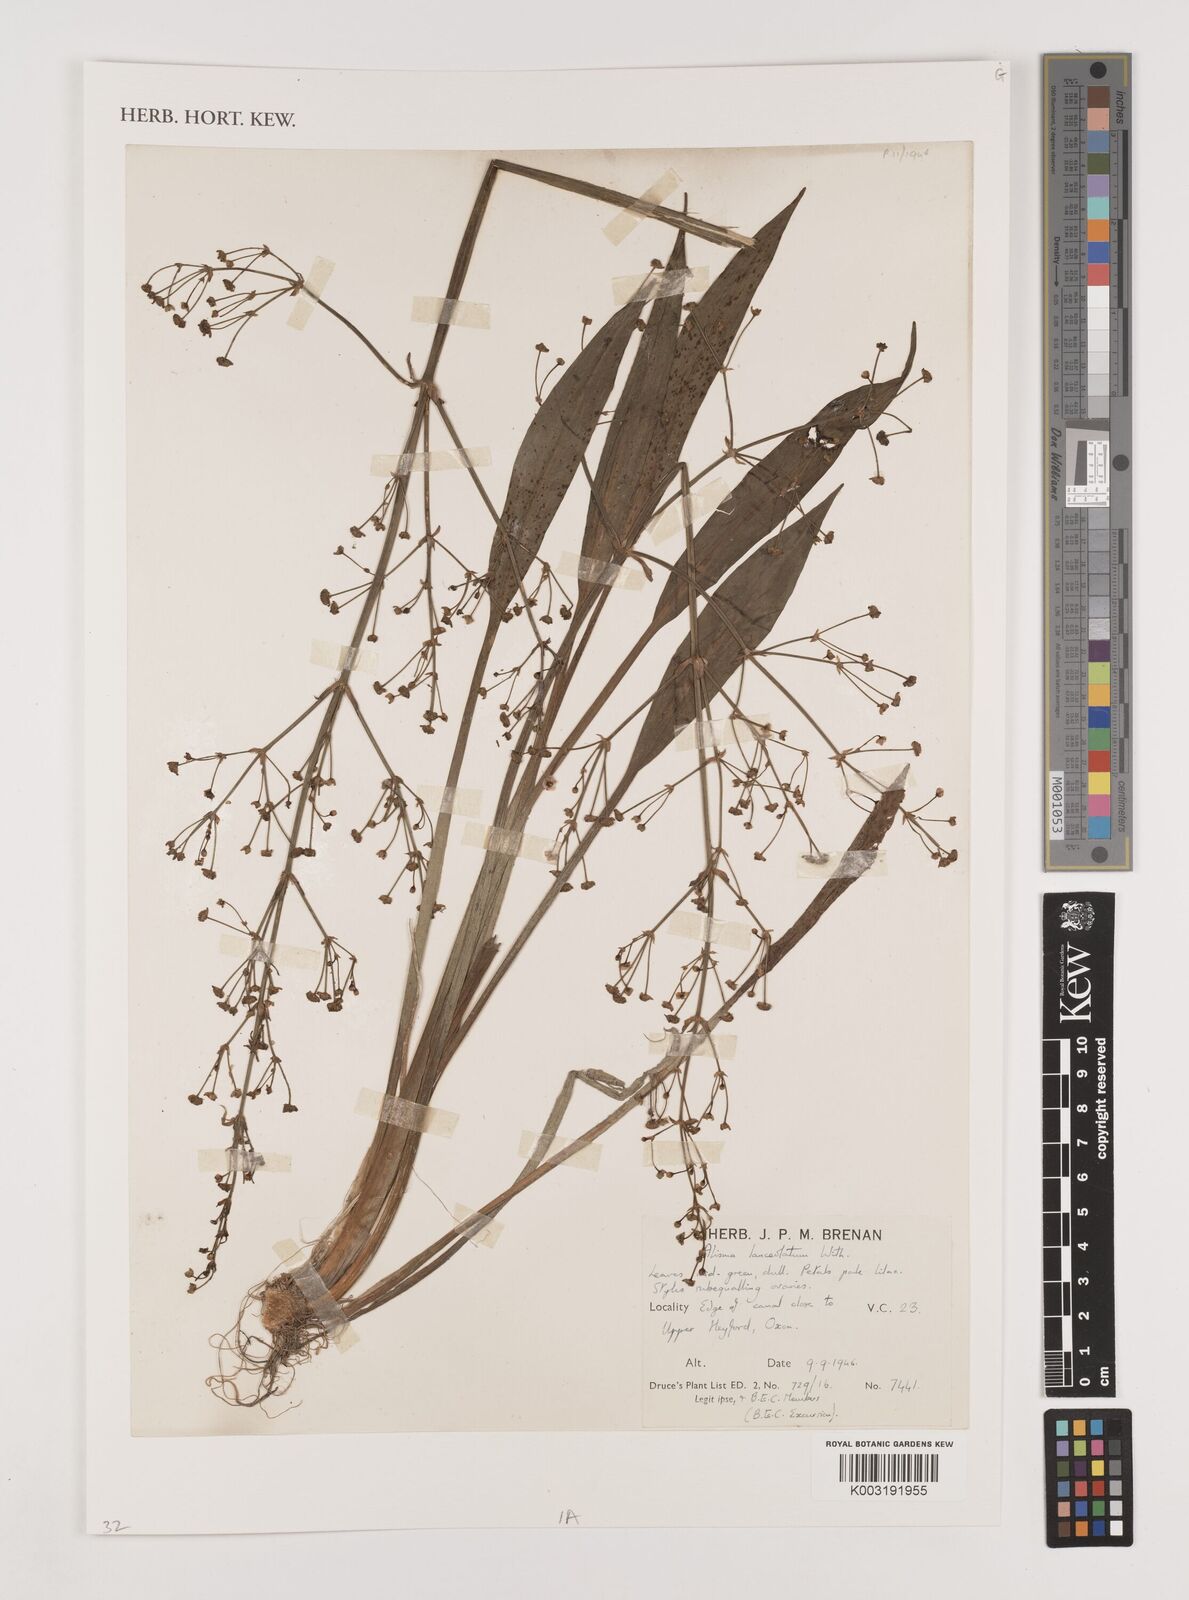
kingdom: Plantae
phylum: Tracheophyta
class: Liliopsida
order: Alismatales
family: Alismataceae
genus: Alisma
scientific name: Alisma lanceolatum
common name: Narrow-leaved water-plantain
